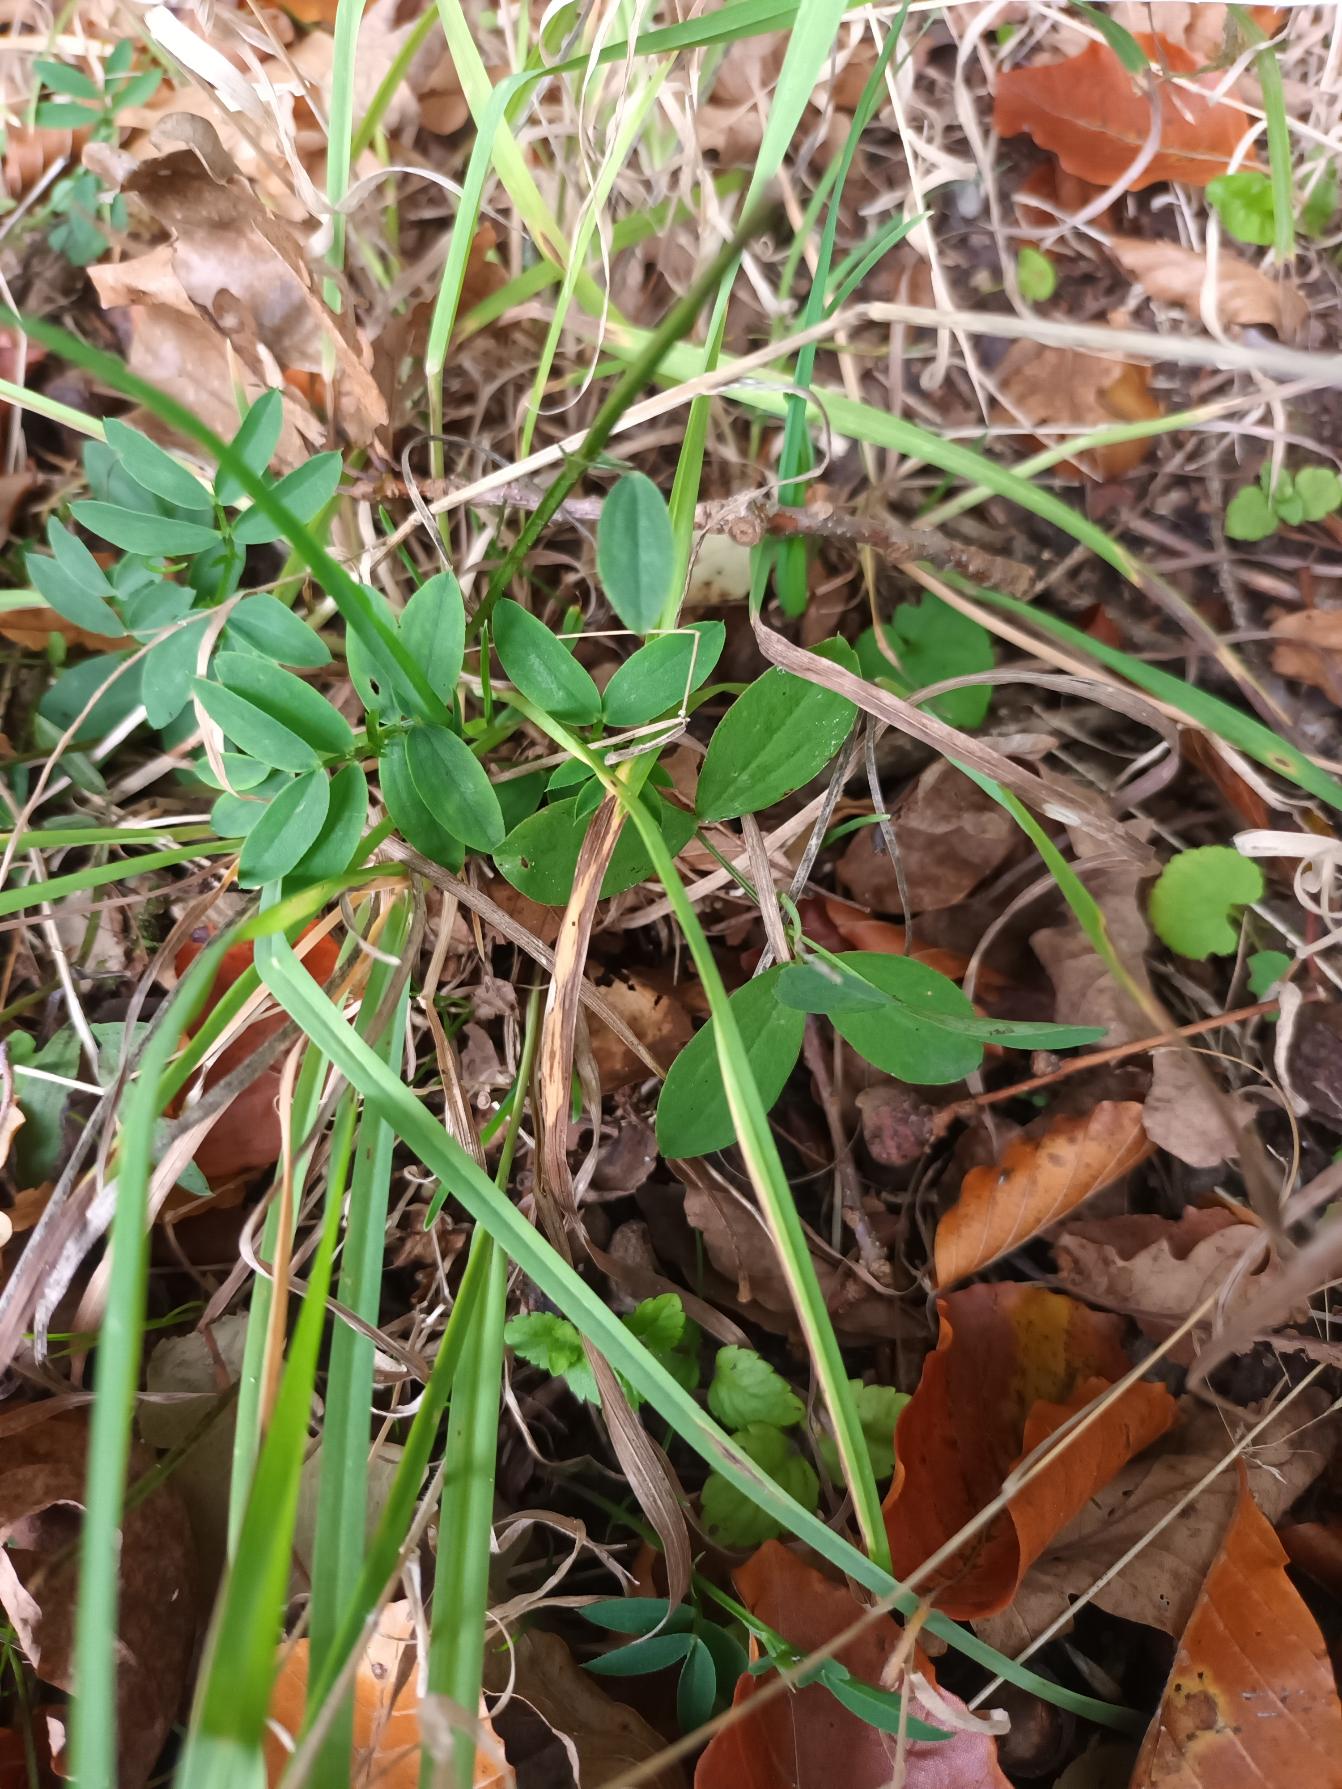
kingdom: Plantae
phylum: Tracheophyta
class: Magnoliopsida
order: Fabales
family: Fabaceae
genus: Lathyrus
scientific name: Lathyrus linifolius
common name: Krat-fladbælg
